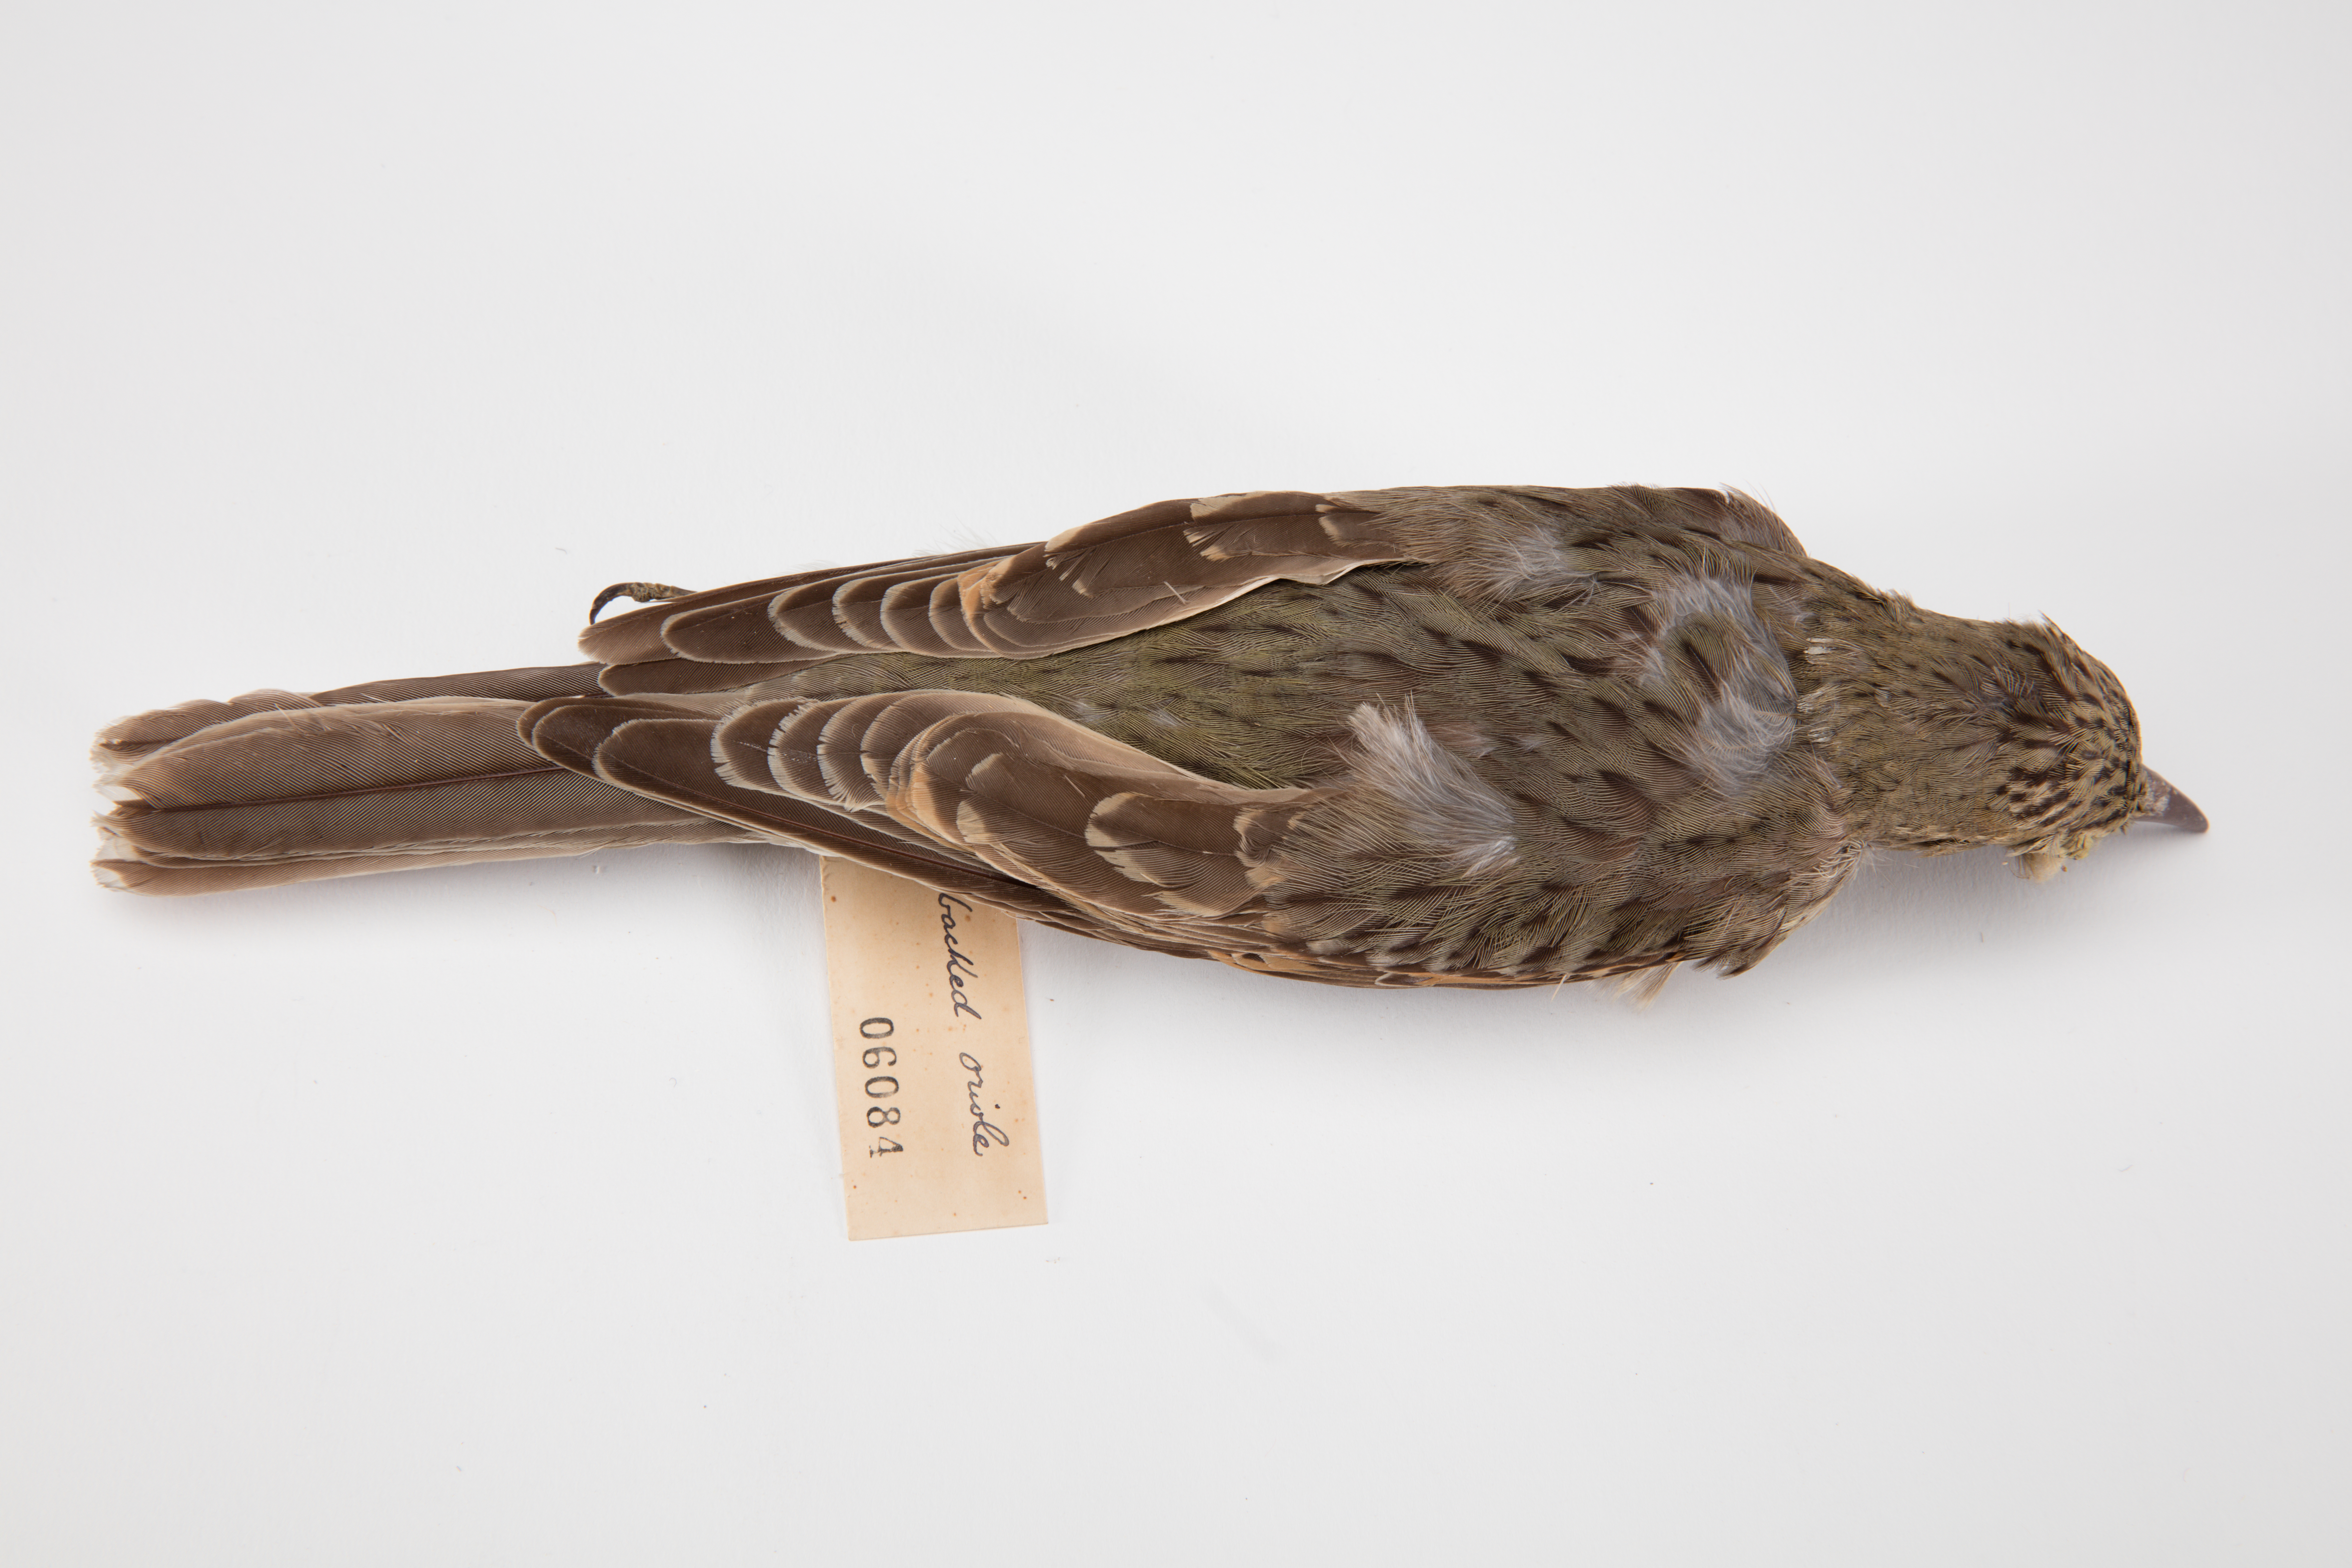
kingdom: Animalia
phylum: Chordata
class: Aves
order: Passeriformes
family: Oriolidae
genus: Oriolus
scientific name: Oriolus sagittatus
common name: Olive-backed oriole
